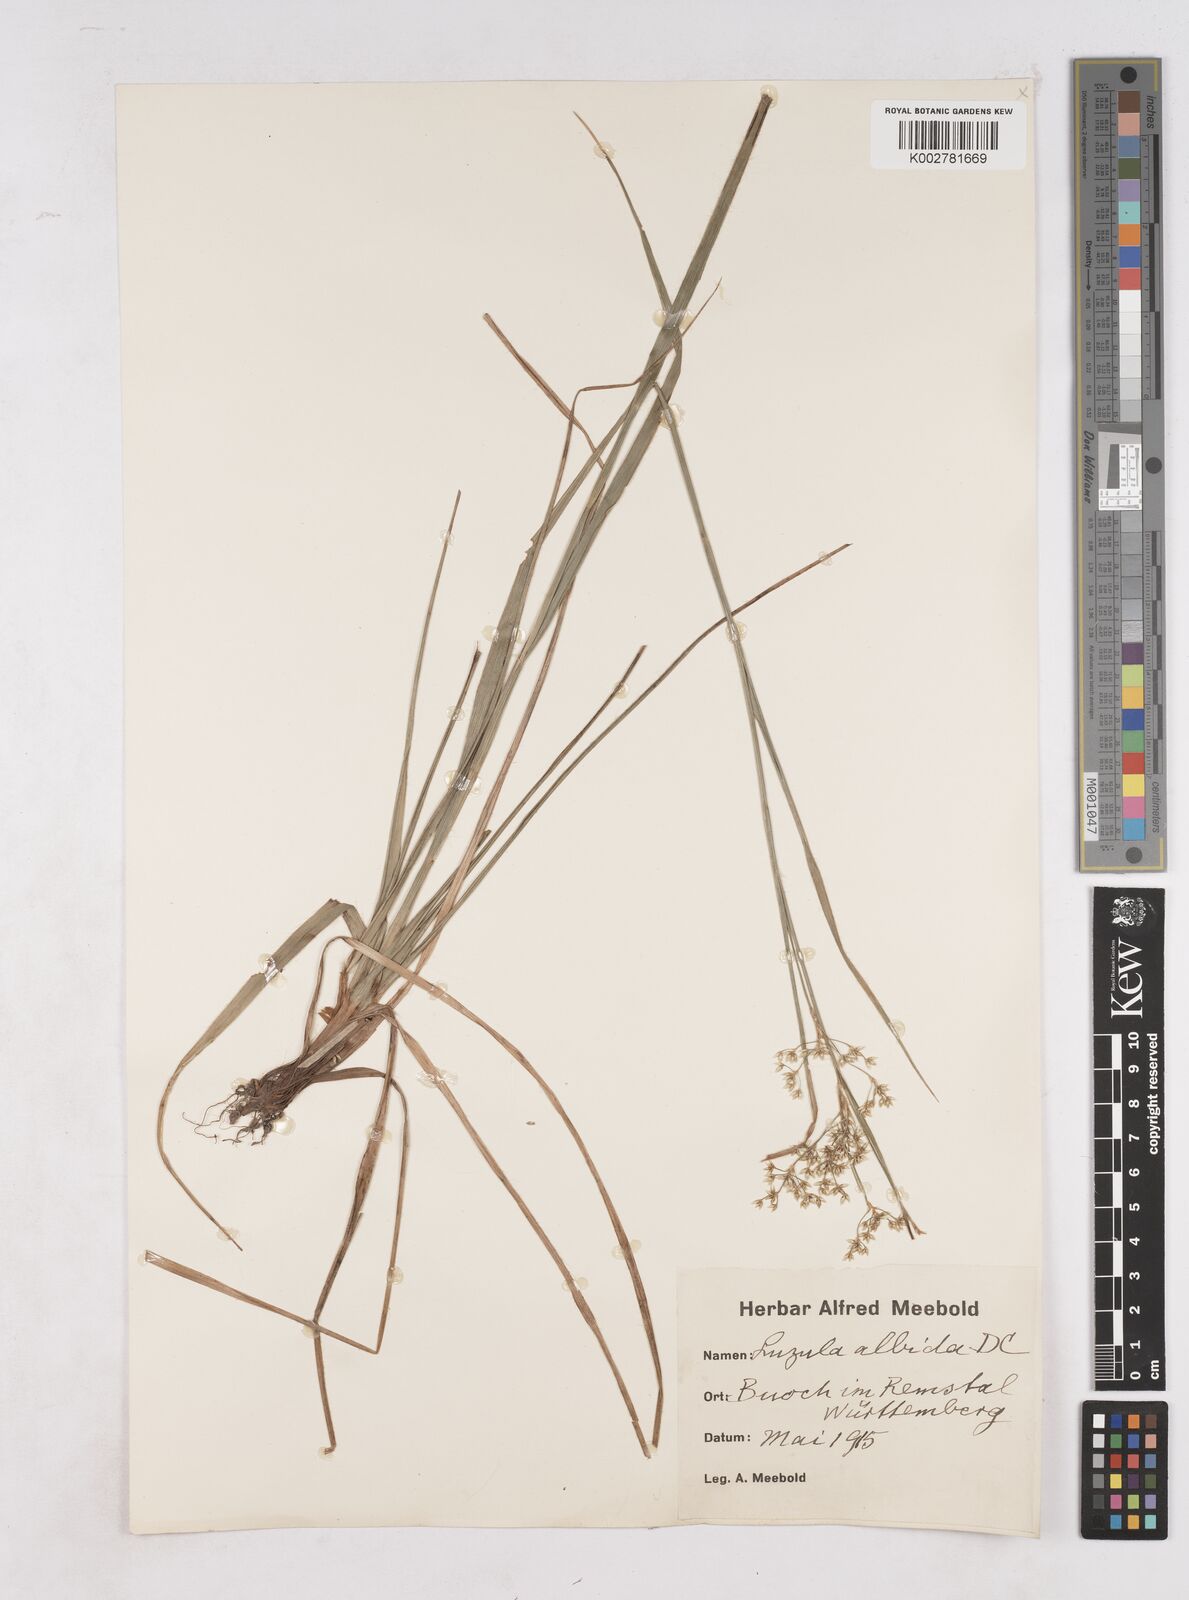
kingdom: Plantae
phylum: Tracheophyta
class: Liliopsida
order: Poales
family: Juncaceae
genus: Luzula
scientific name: Luzula luzuloides
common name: White wood-rush
